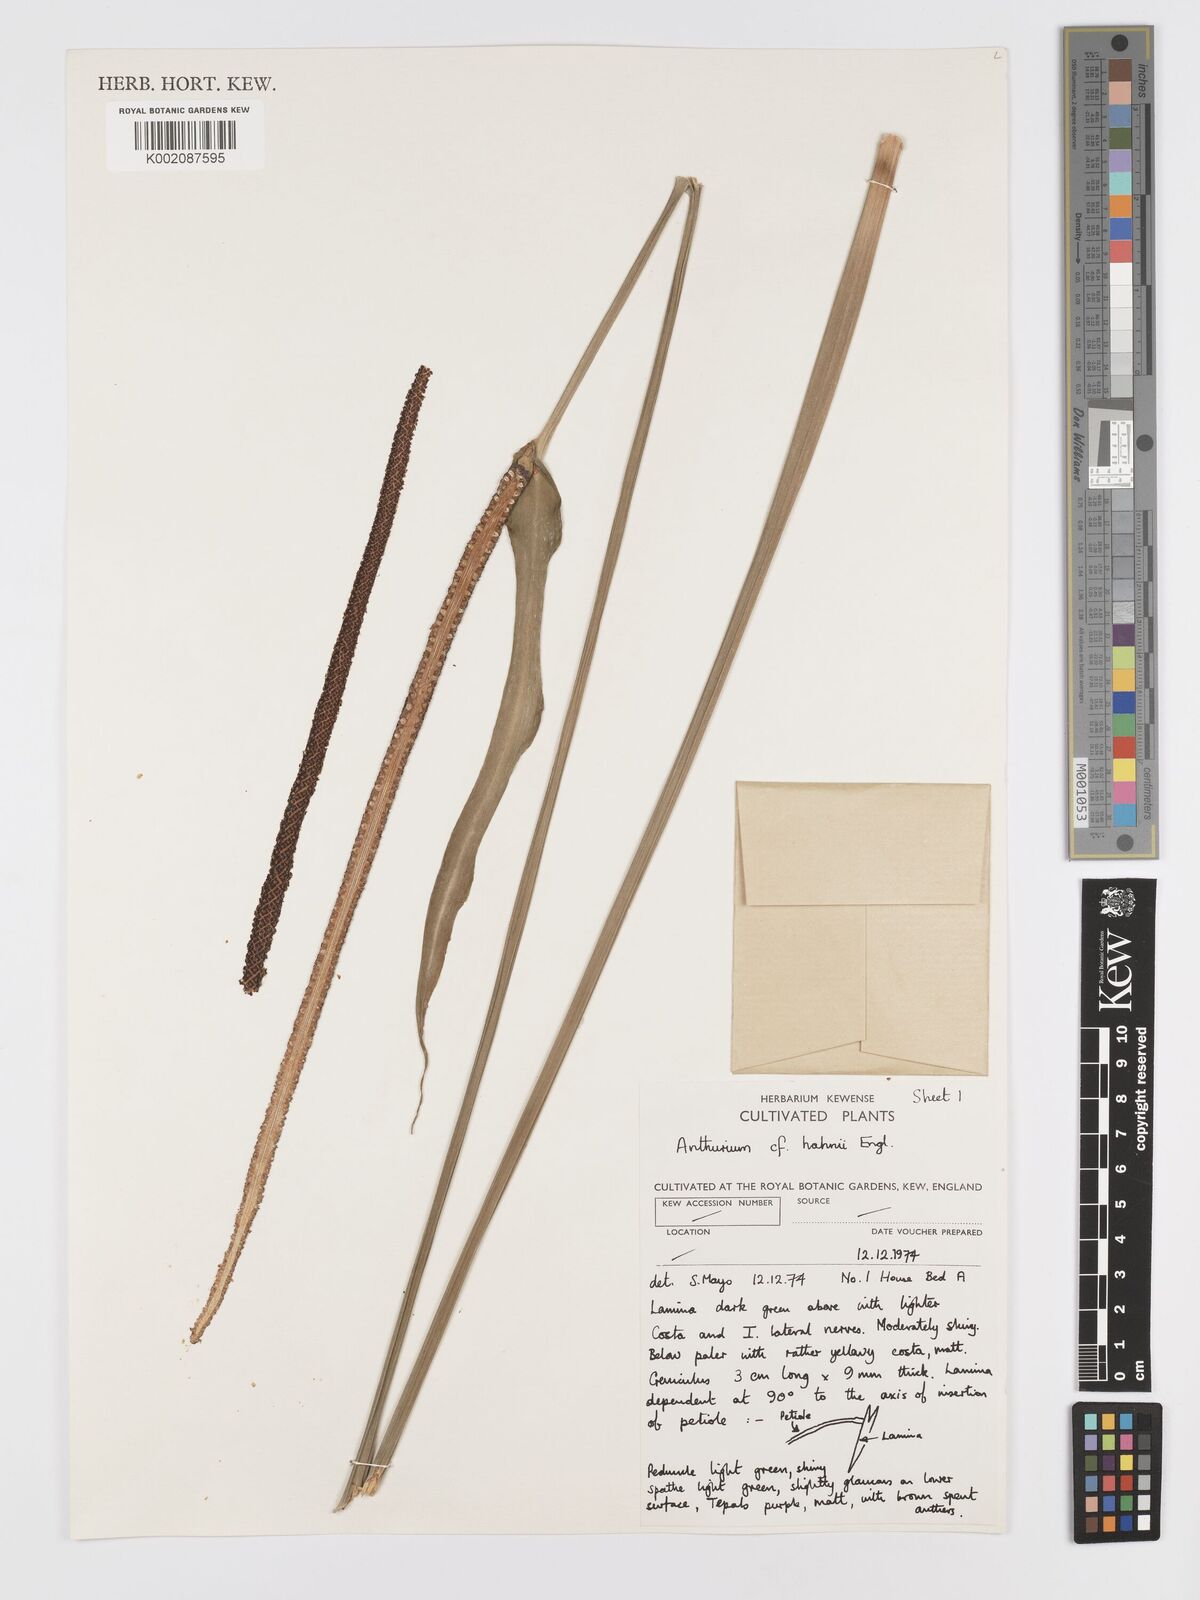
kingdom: Plantae
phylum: Tracheophyta
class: Liliopsida
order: Alismatales
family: Araceae
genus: Anthurium
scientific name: Anthurium grandifolium
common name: Monkey tail
